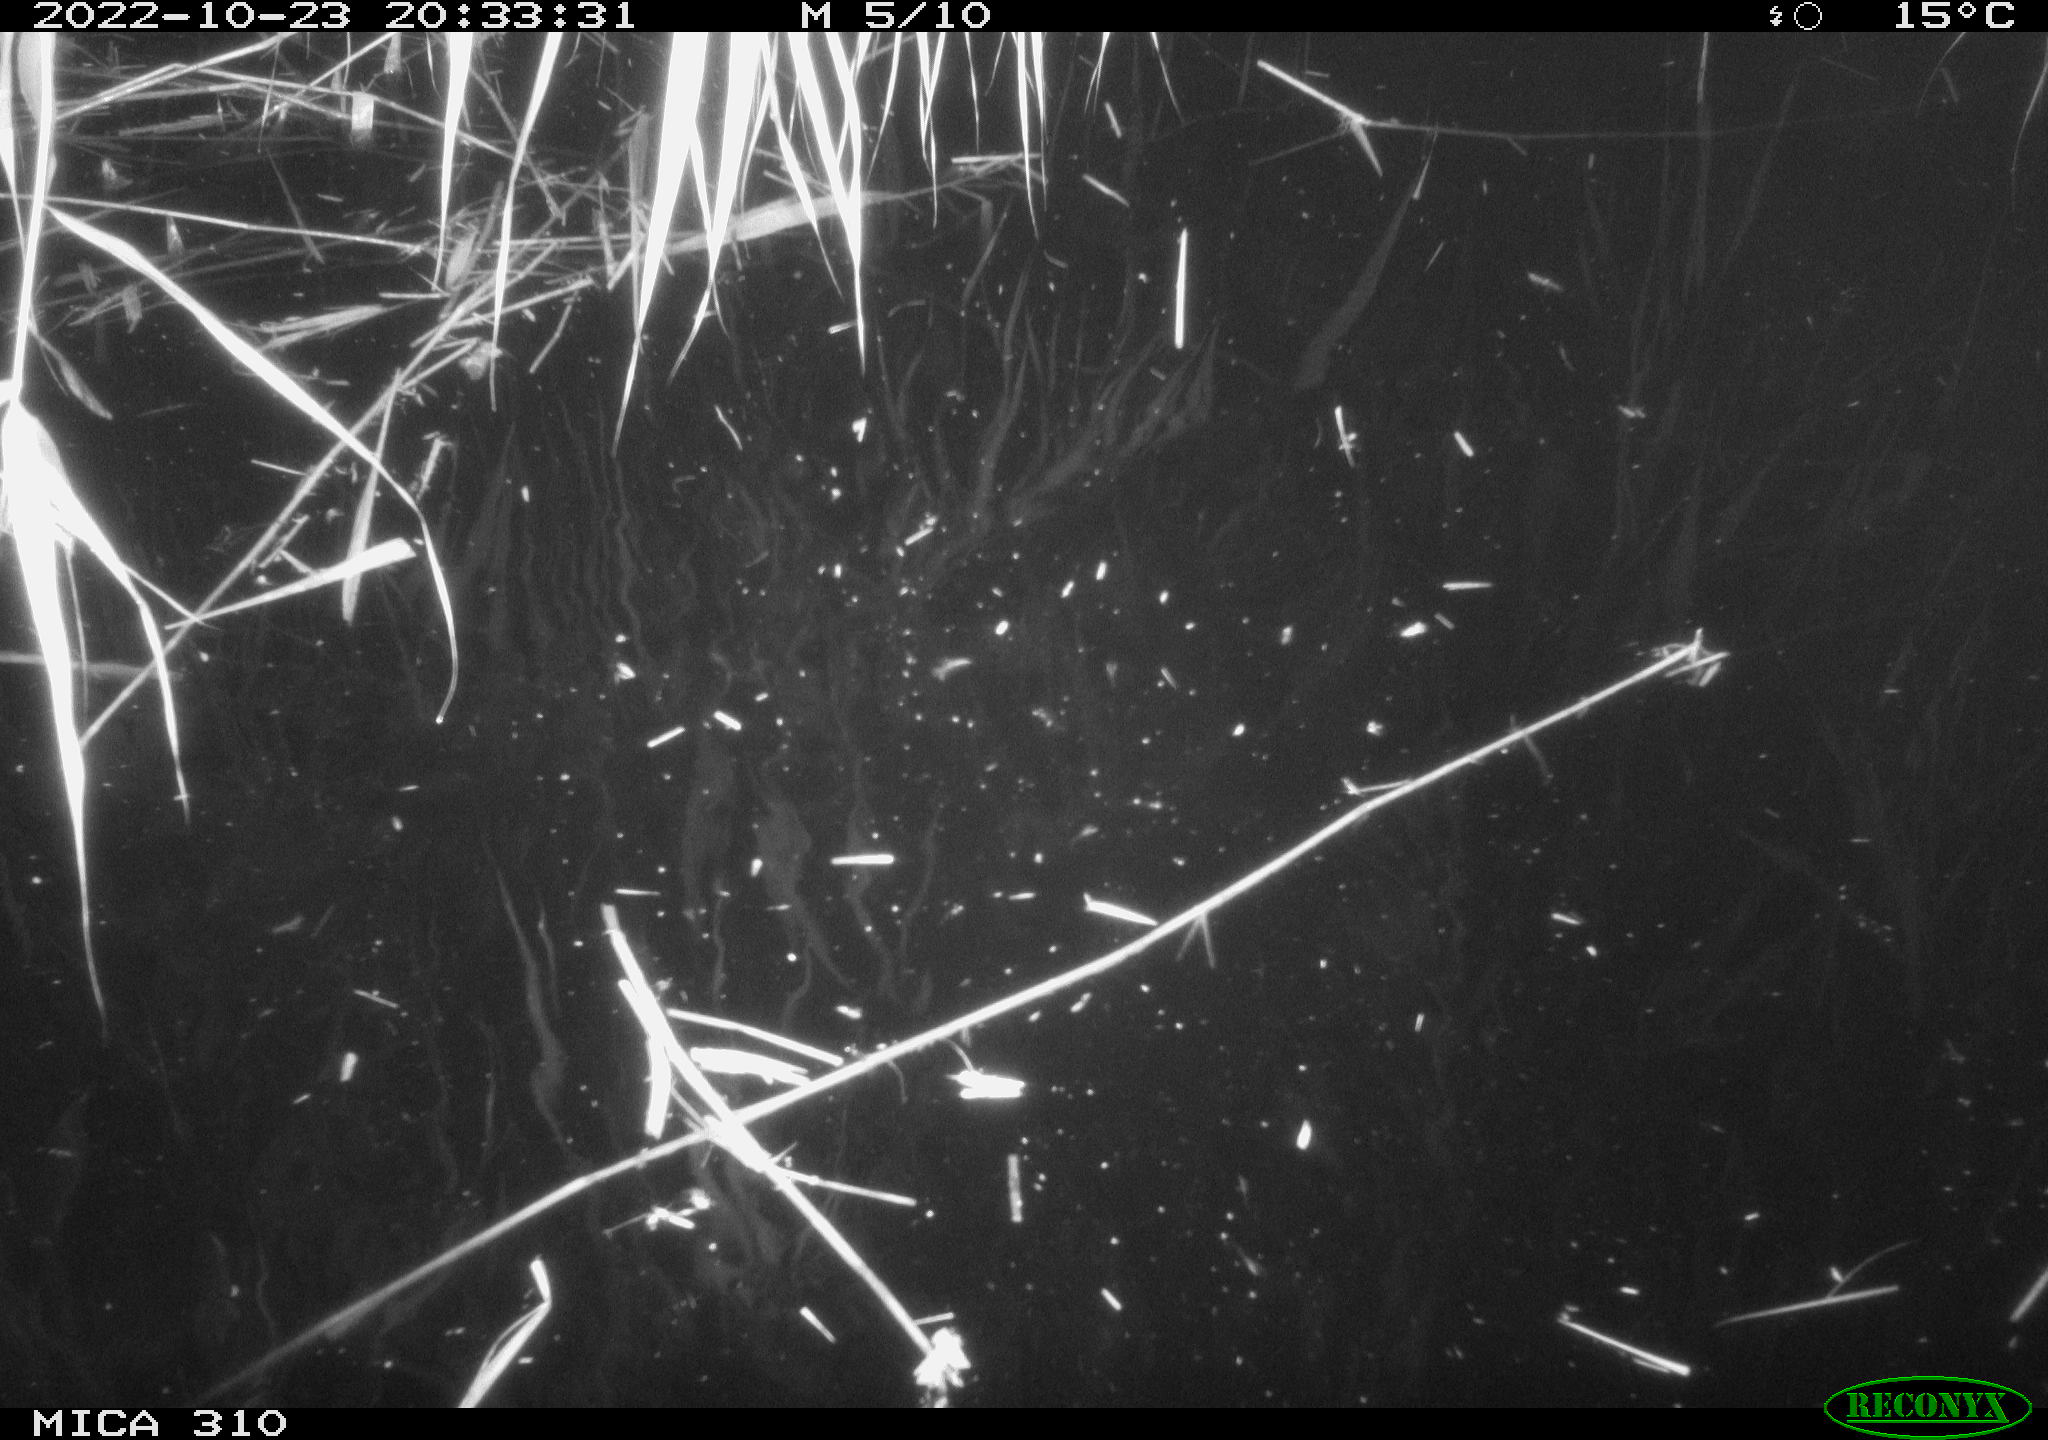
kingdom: Animalia
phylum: Chordata
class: Mammalia
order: Rodentia
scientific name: Rodentia
